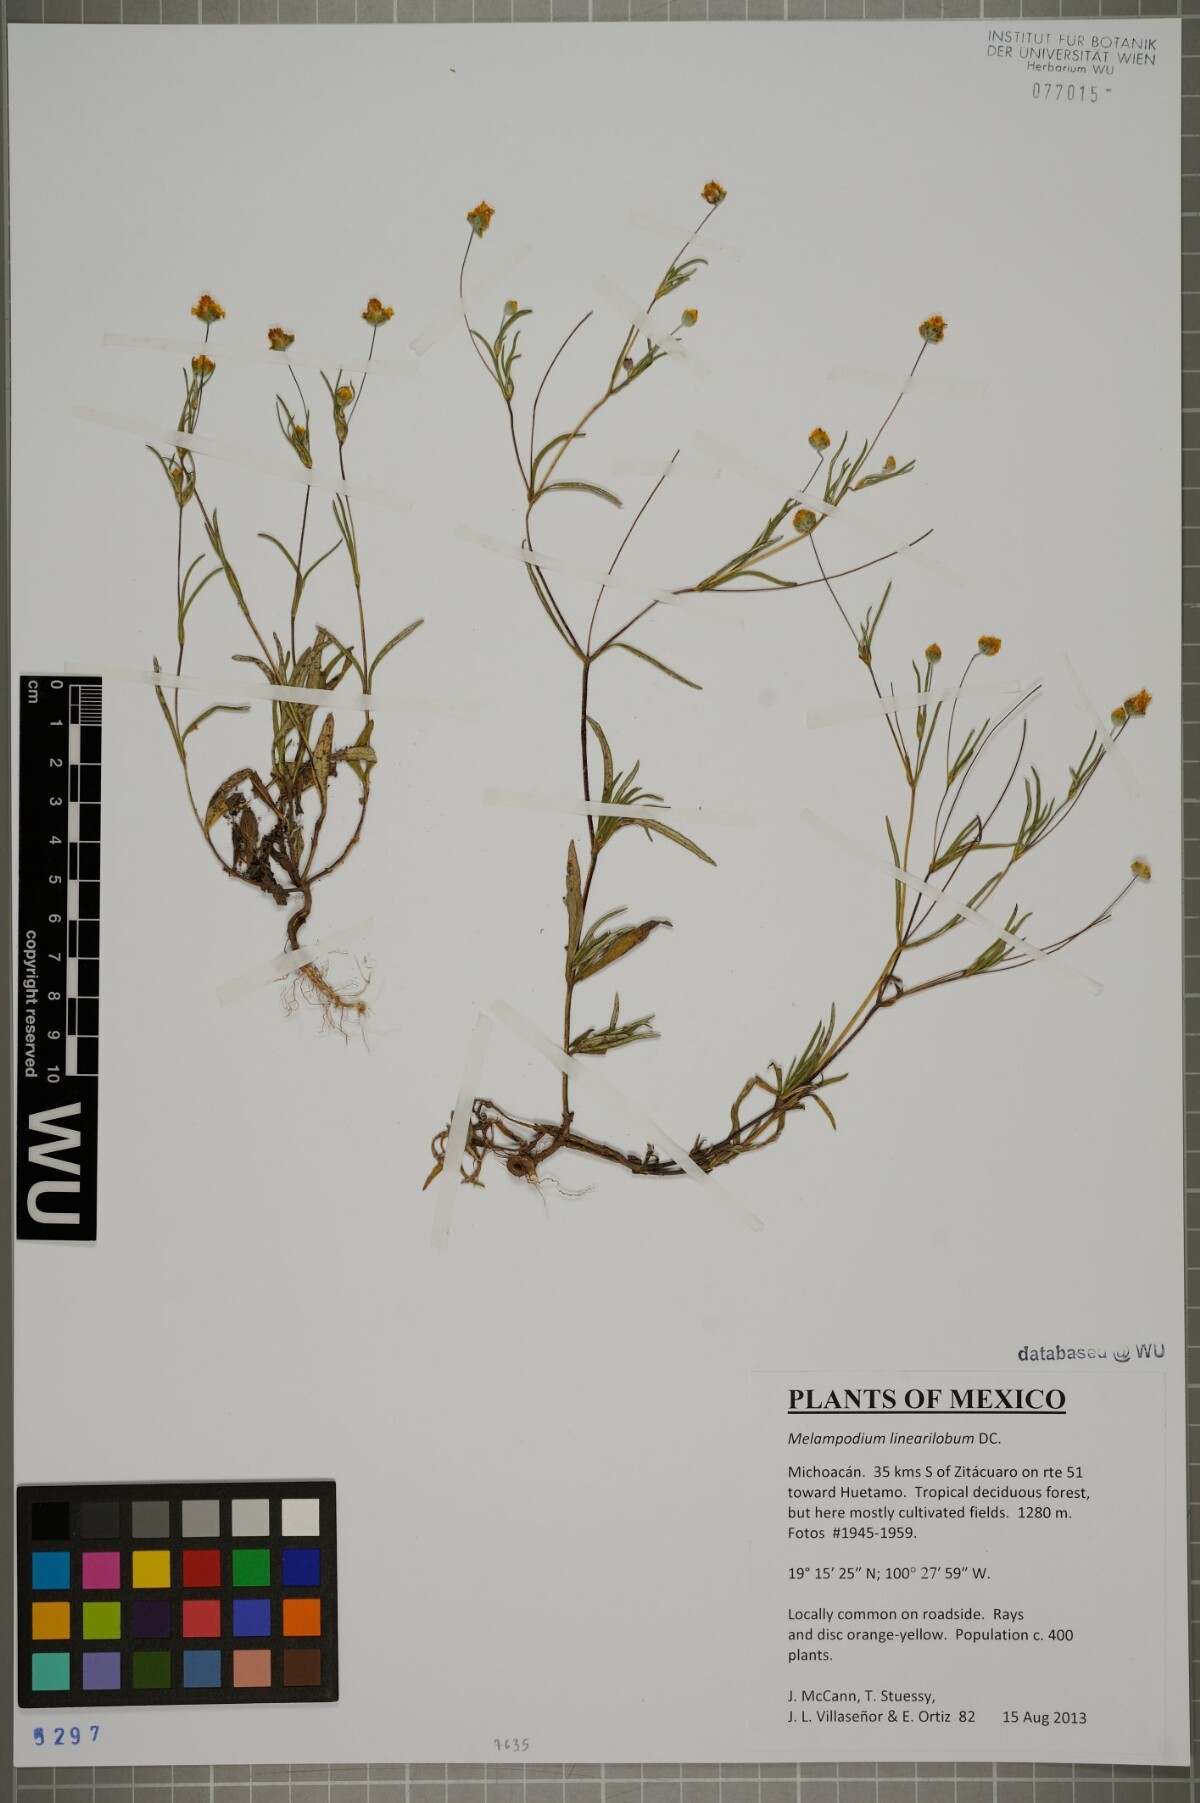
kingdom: Plantae
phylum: Tracheophyta
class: Magnoliopsida
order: Asterales
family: Asteraceae
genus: Melampodium
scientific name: Melampodium linearilobum
